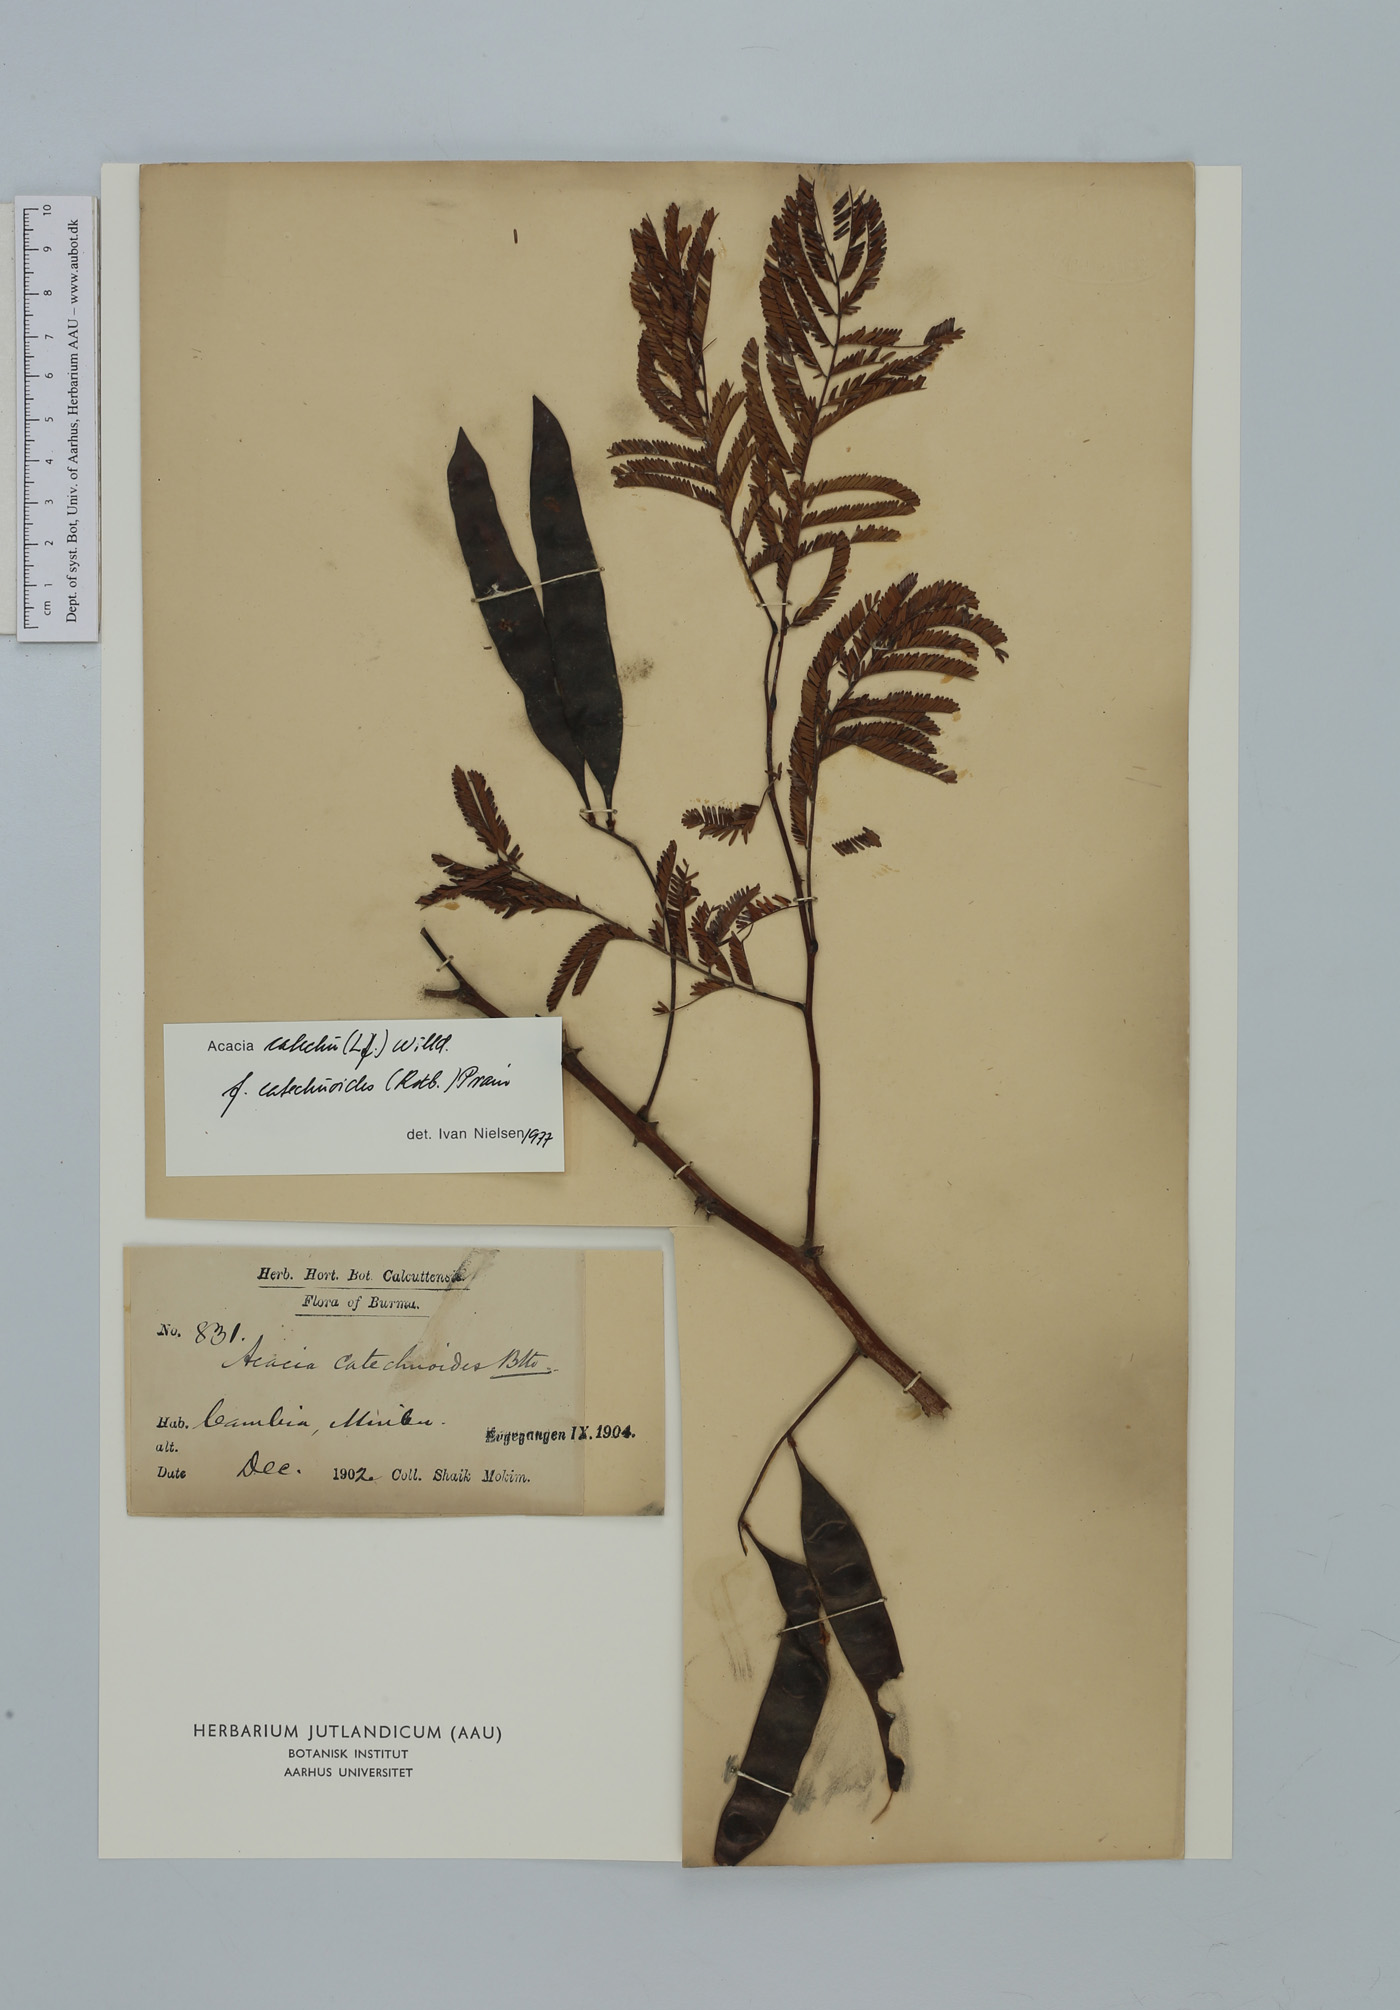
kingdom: Plantae
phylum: Tracheophyta
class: Magnoliopsida
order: Fabales
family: Fabaceae
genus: Senegalia
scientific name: Senegalia catechu
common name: Black cutch
